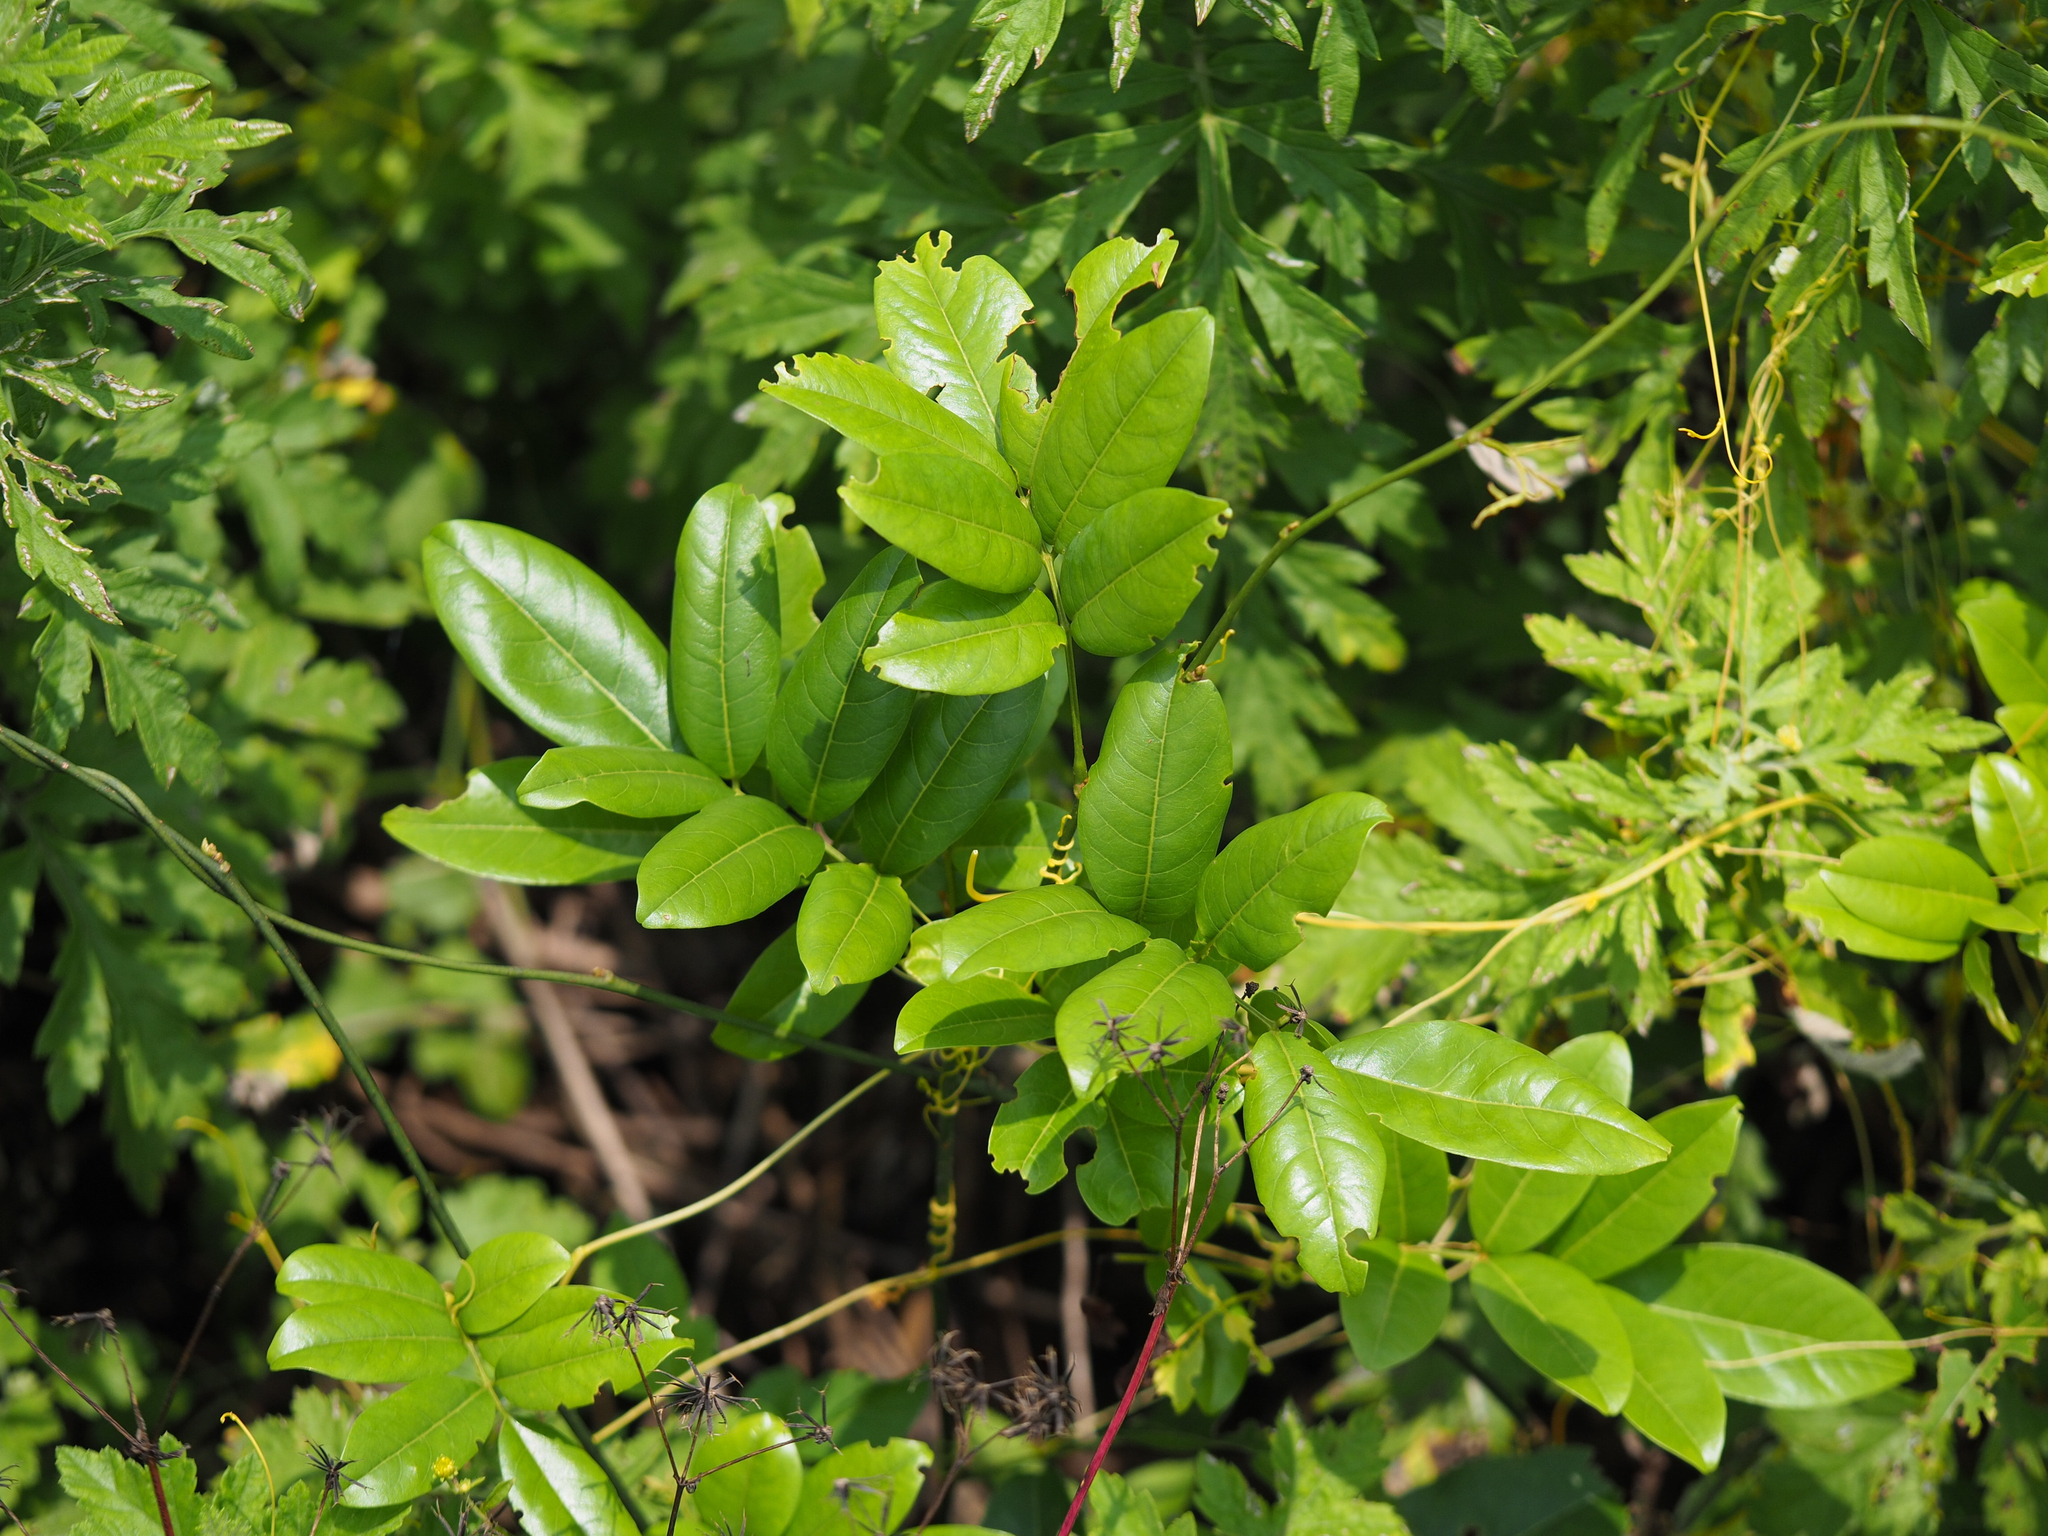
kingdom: Plantae
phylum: Tracheophyta
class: Magnoliopsida
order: Fabales
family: Fabaceae
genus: Wisteriopsis
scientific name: Wisteriopsis reticulata
